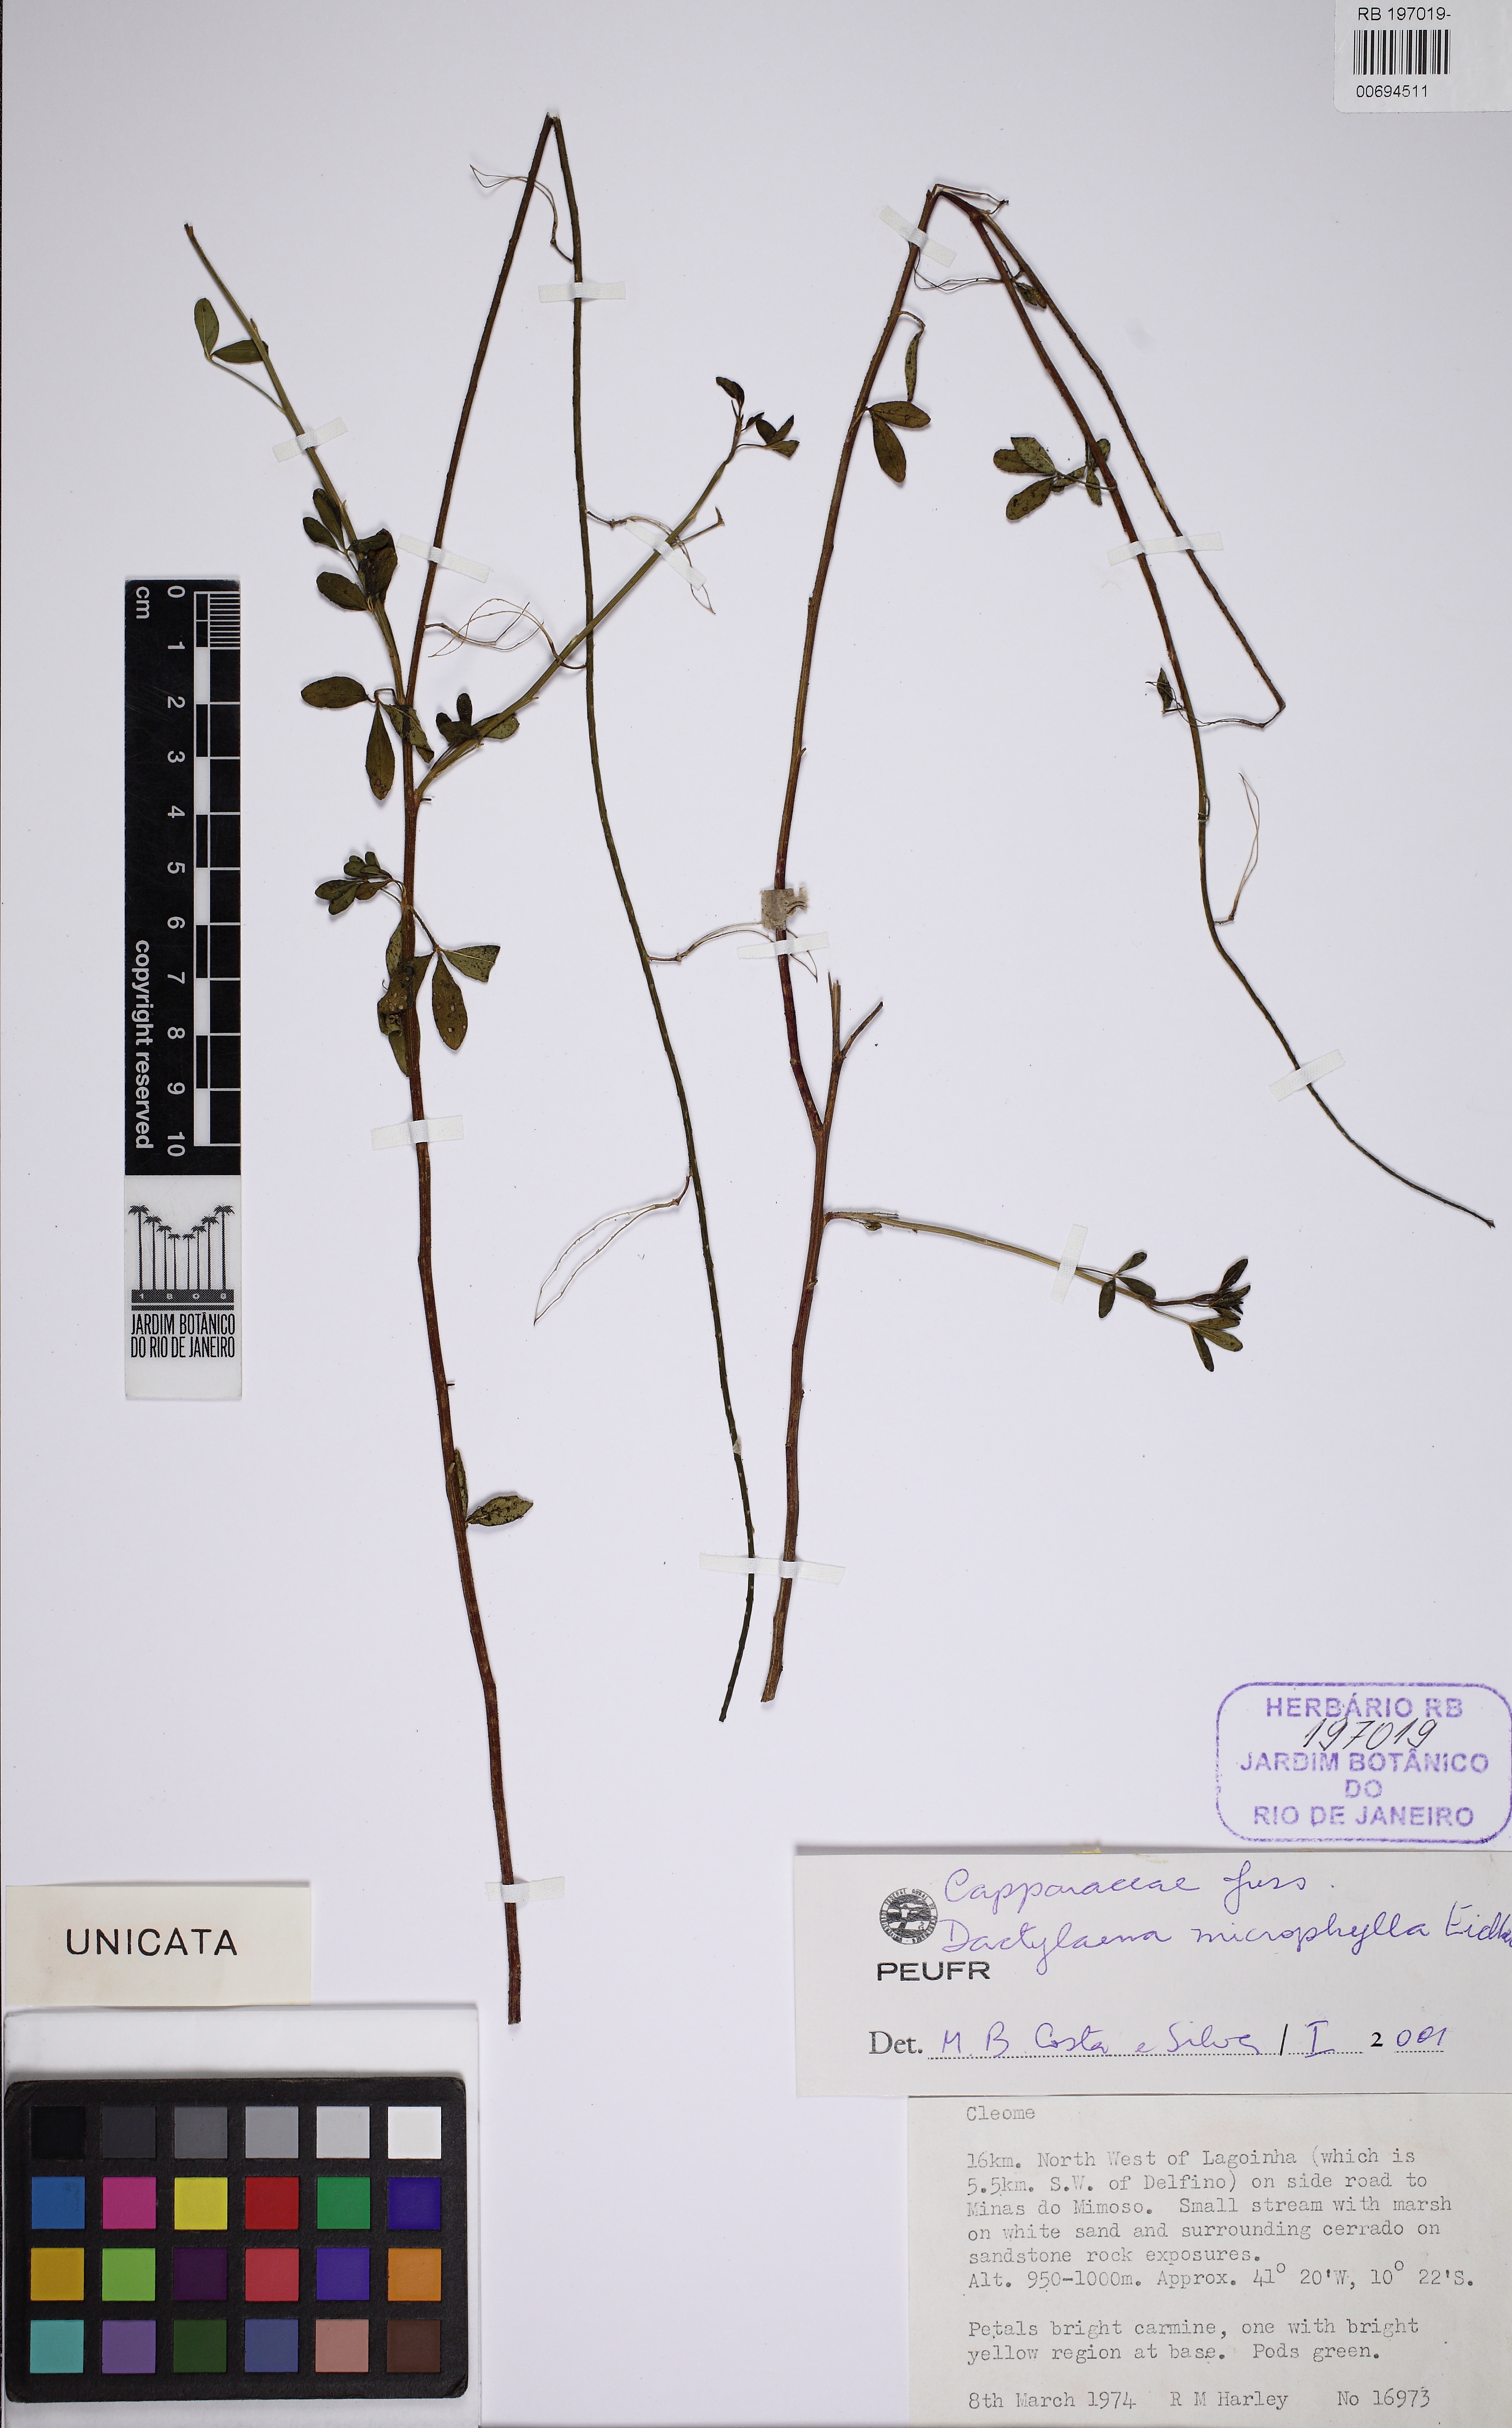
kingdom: Plantae
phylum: Tracheophyta
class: Magnoliopsida
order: Brassicales
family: Cleomaceae
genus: Dactylaena
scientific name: Dactylaena microphylla
